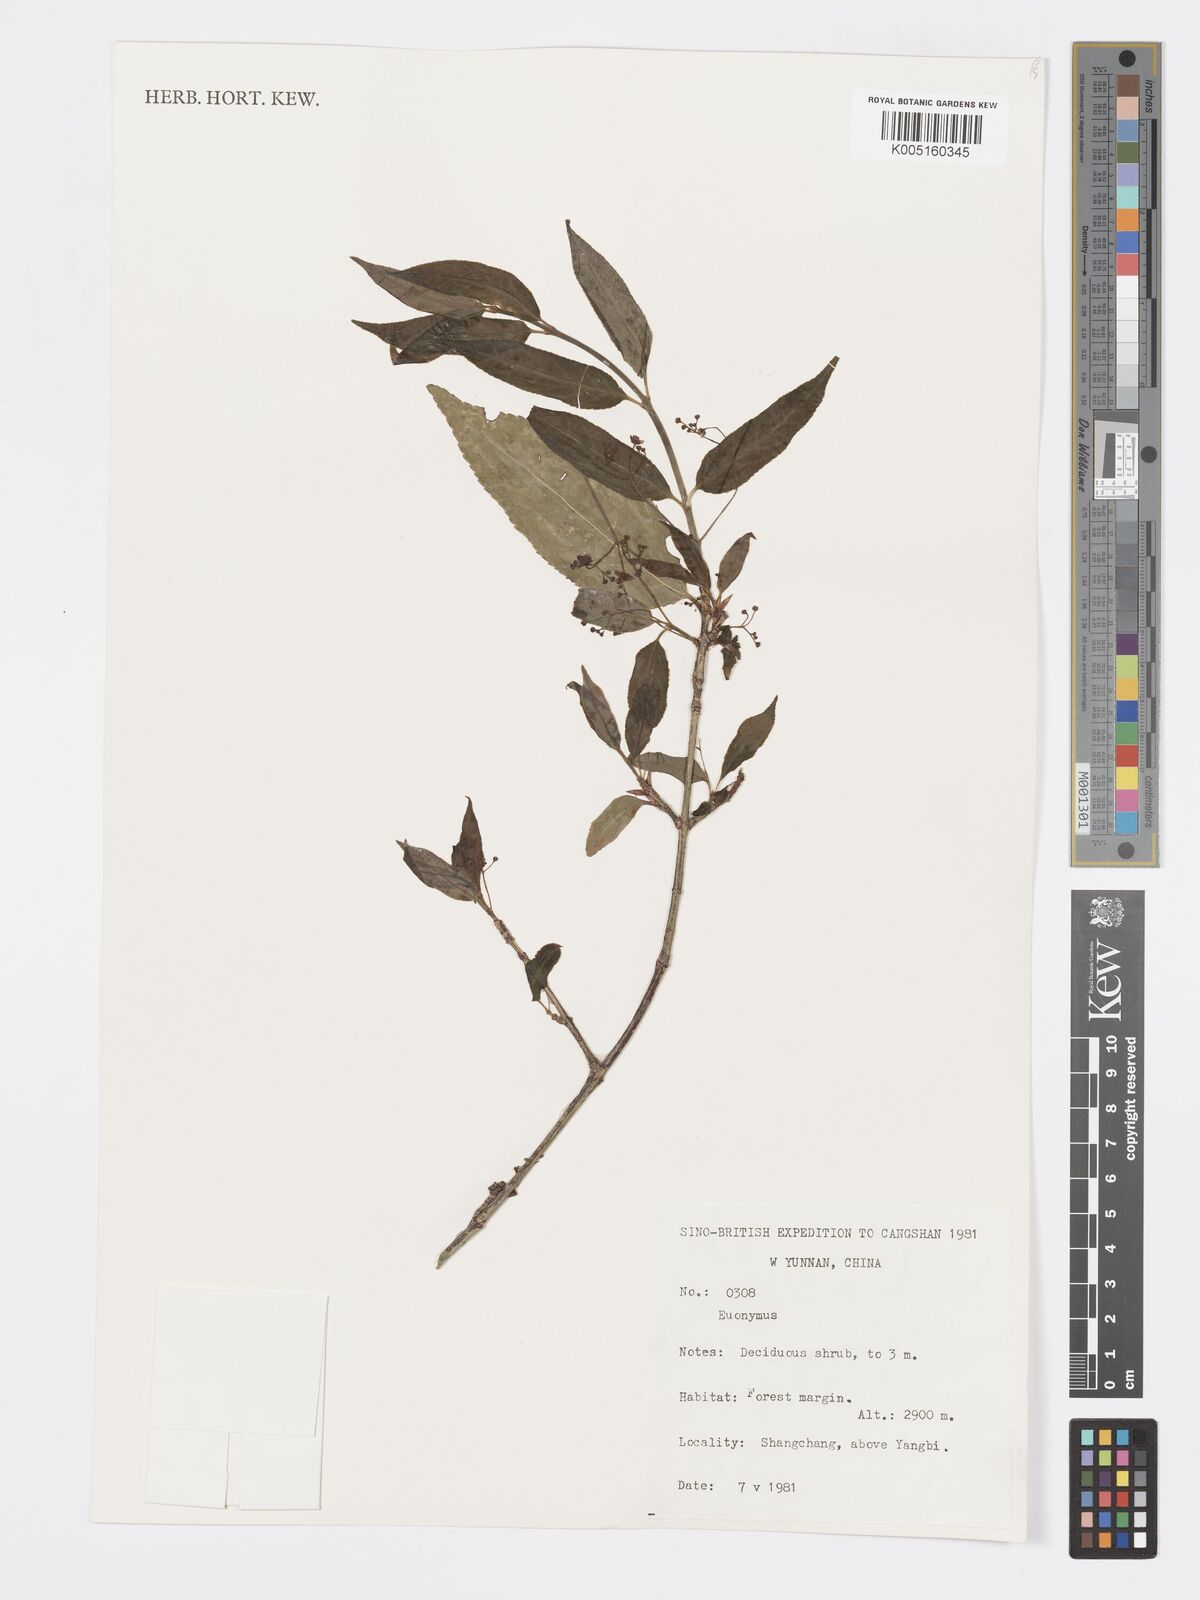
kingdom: Plantae
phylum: Tracheophyta
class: Magnoliopsida
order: Celastrales
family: Celastraceae
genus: Euonymus
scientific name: Euonymus
